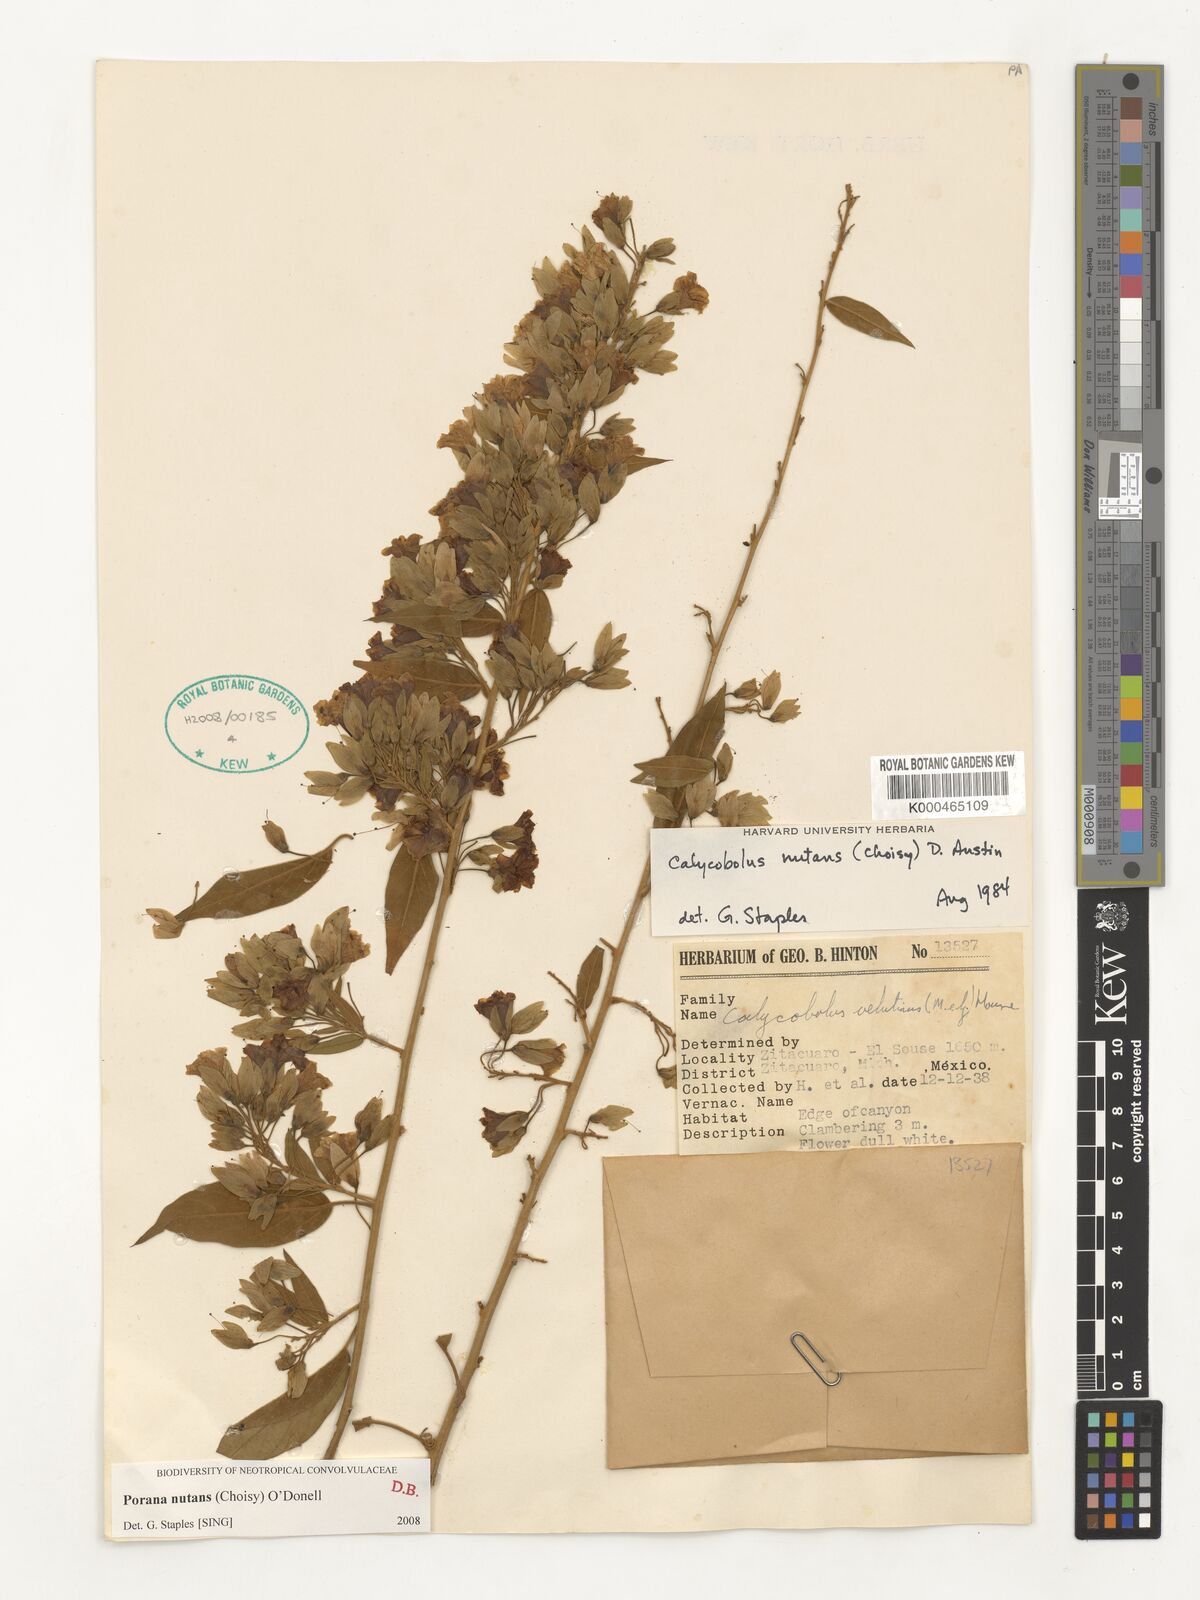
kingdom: Plantae
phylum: Tracheophyta
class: Magnoliopsida
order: Solanales
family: Convolvulaceae
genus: Calycobolus
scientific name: Calycobolus
